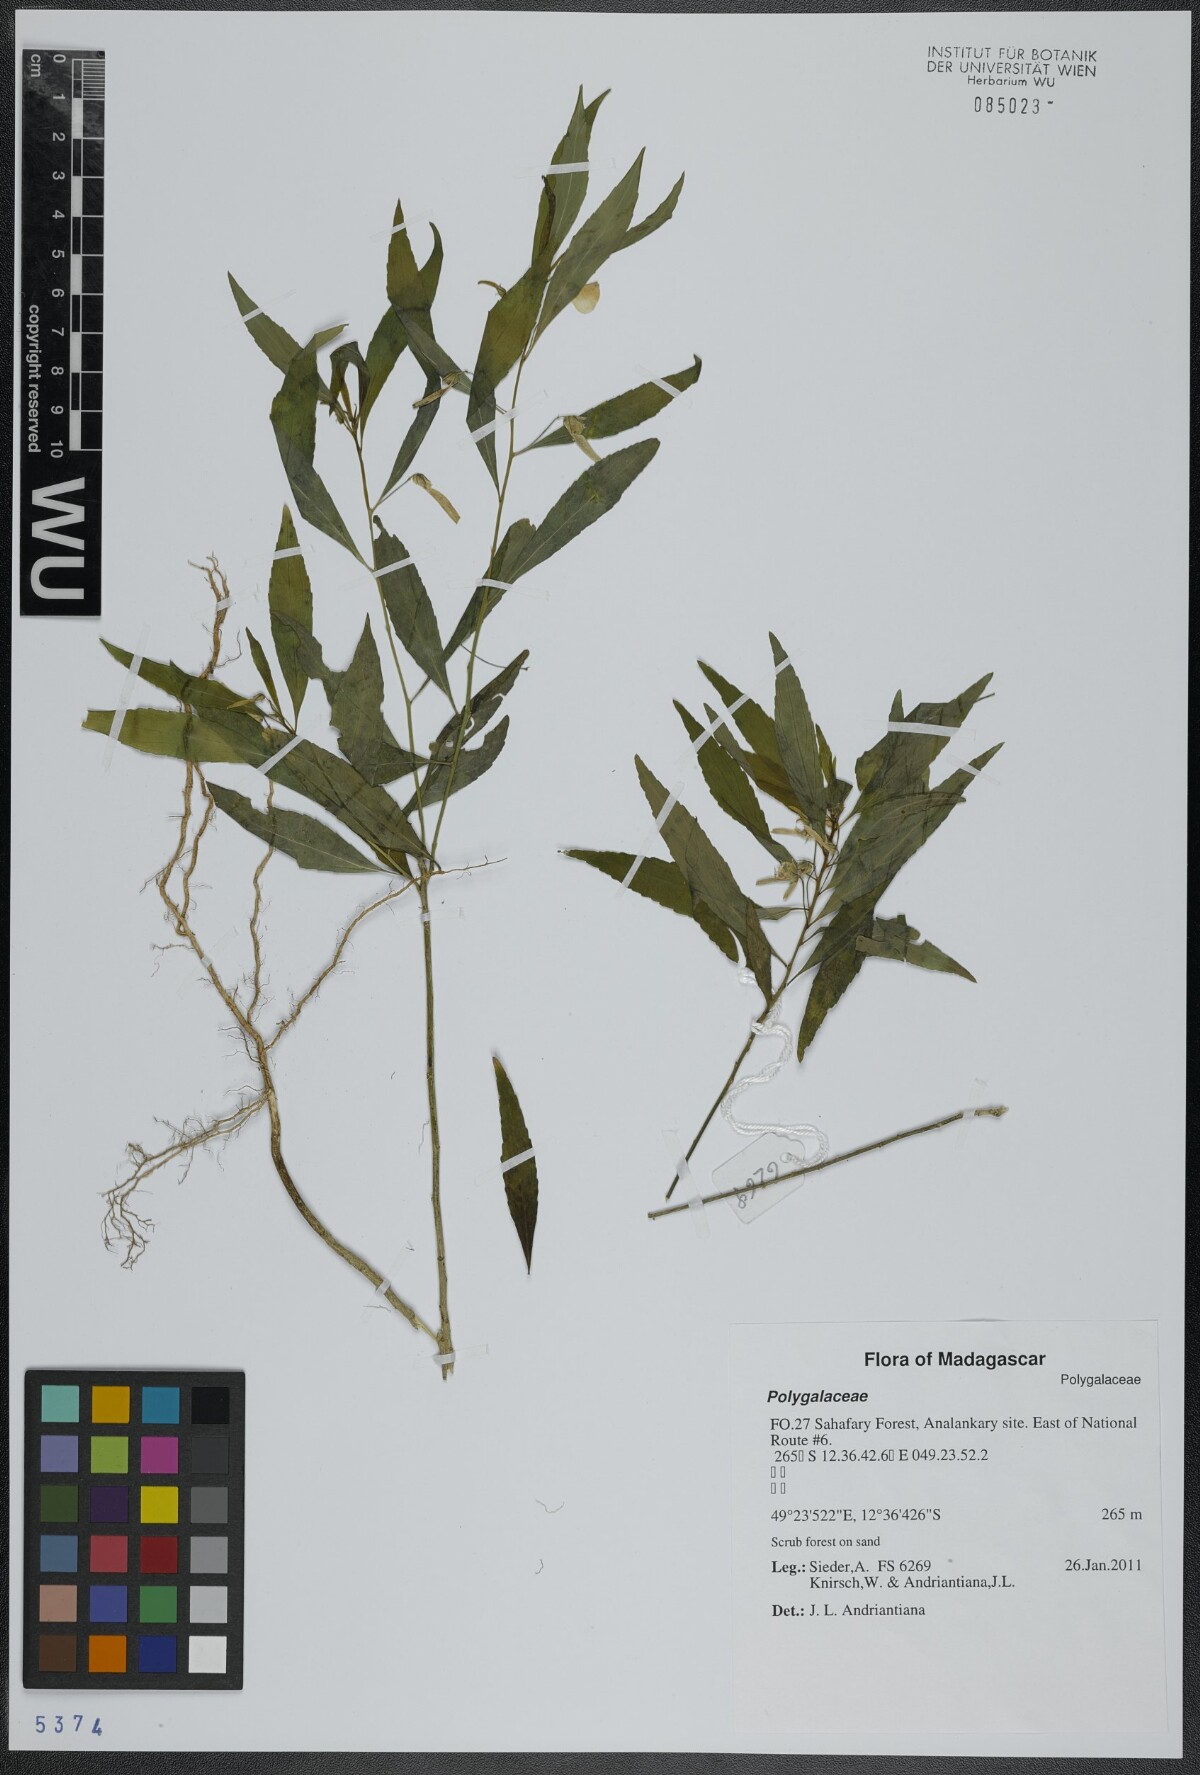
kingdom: Plantae
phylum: Tracheophyta
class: Magnoliopsida
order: Fabales
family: Polygalaceae
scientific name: Polygalaceae
